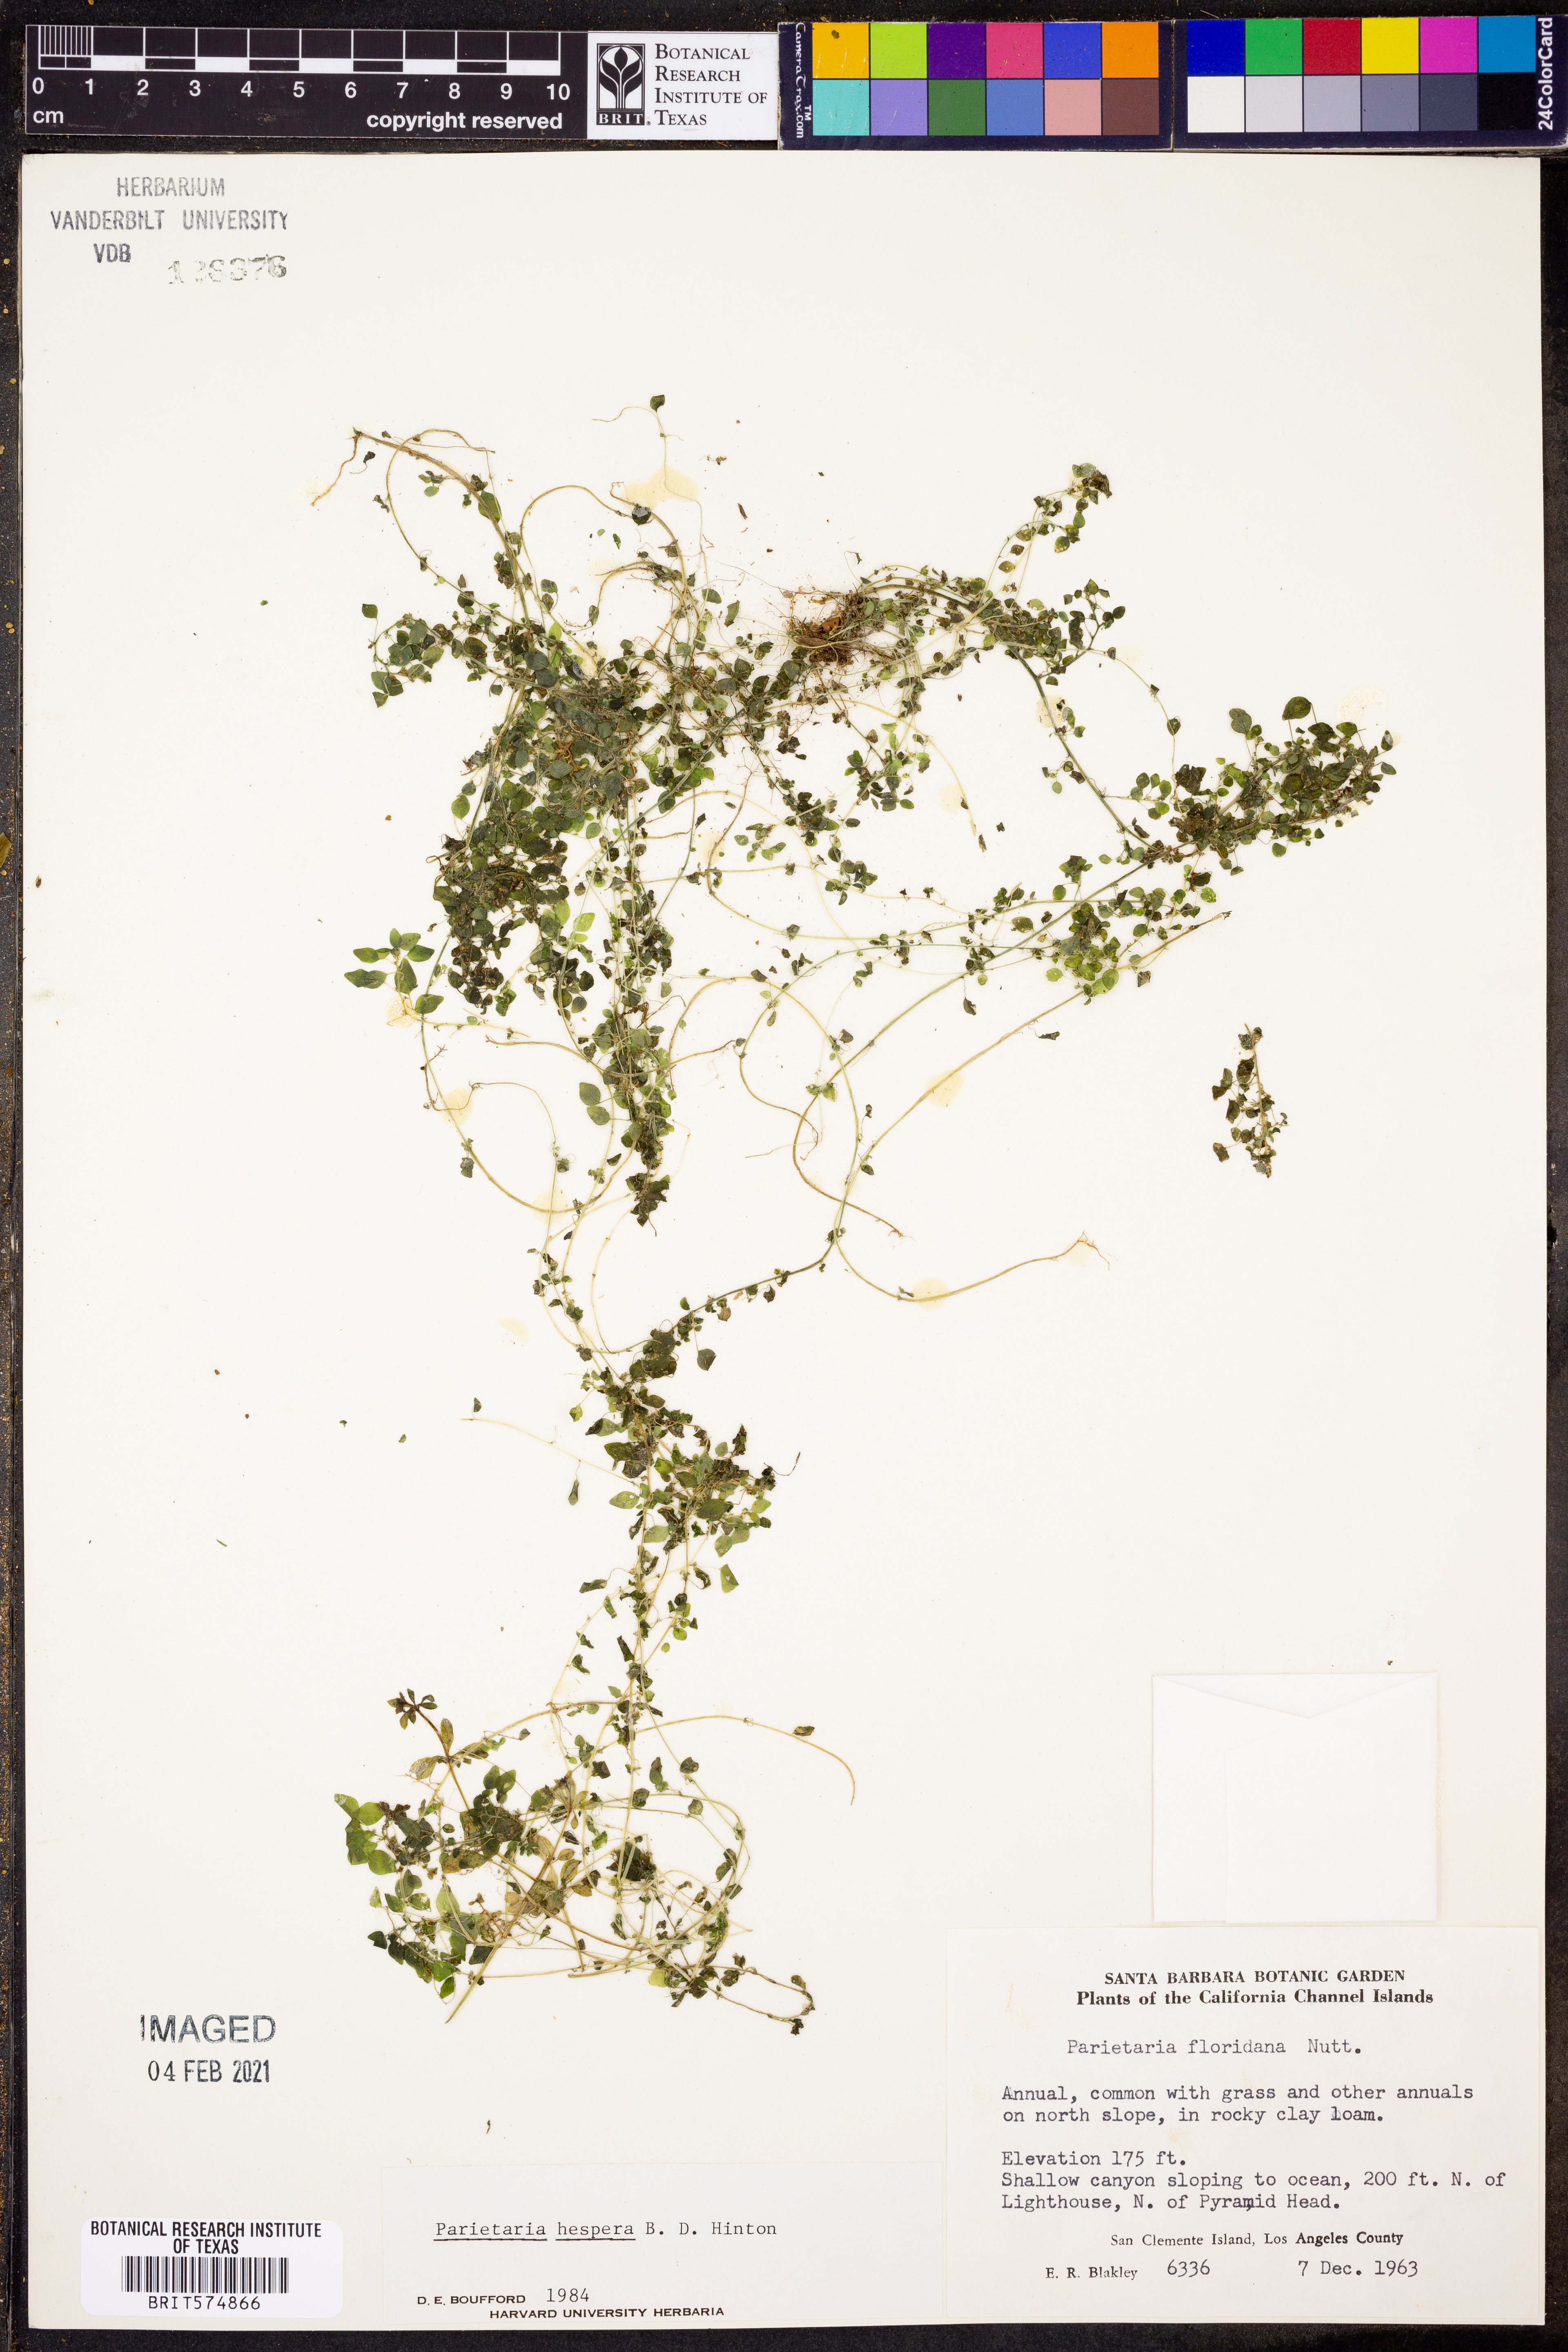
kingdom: Plantae
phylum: Tracheophyta
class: Magnoliopsida
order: Rosales
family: Urticaceae
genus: Parietaria
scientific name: Parietaria hespera
